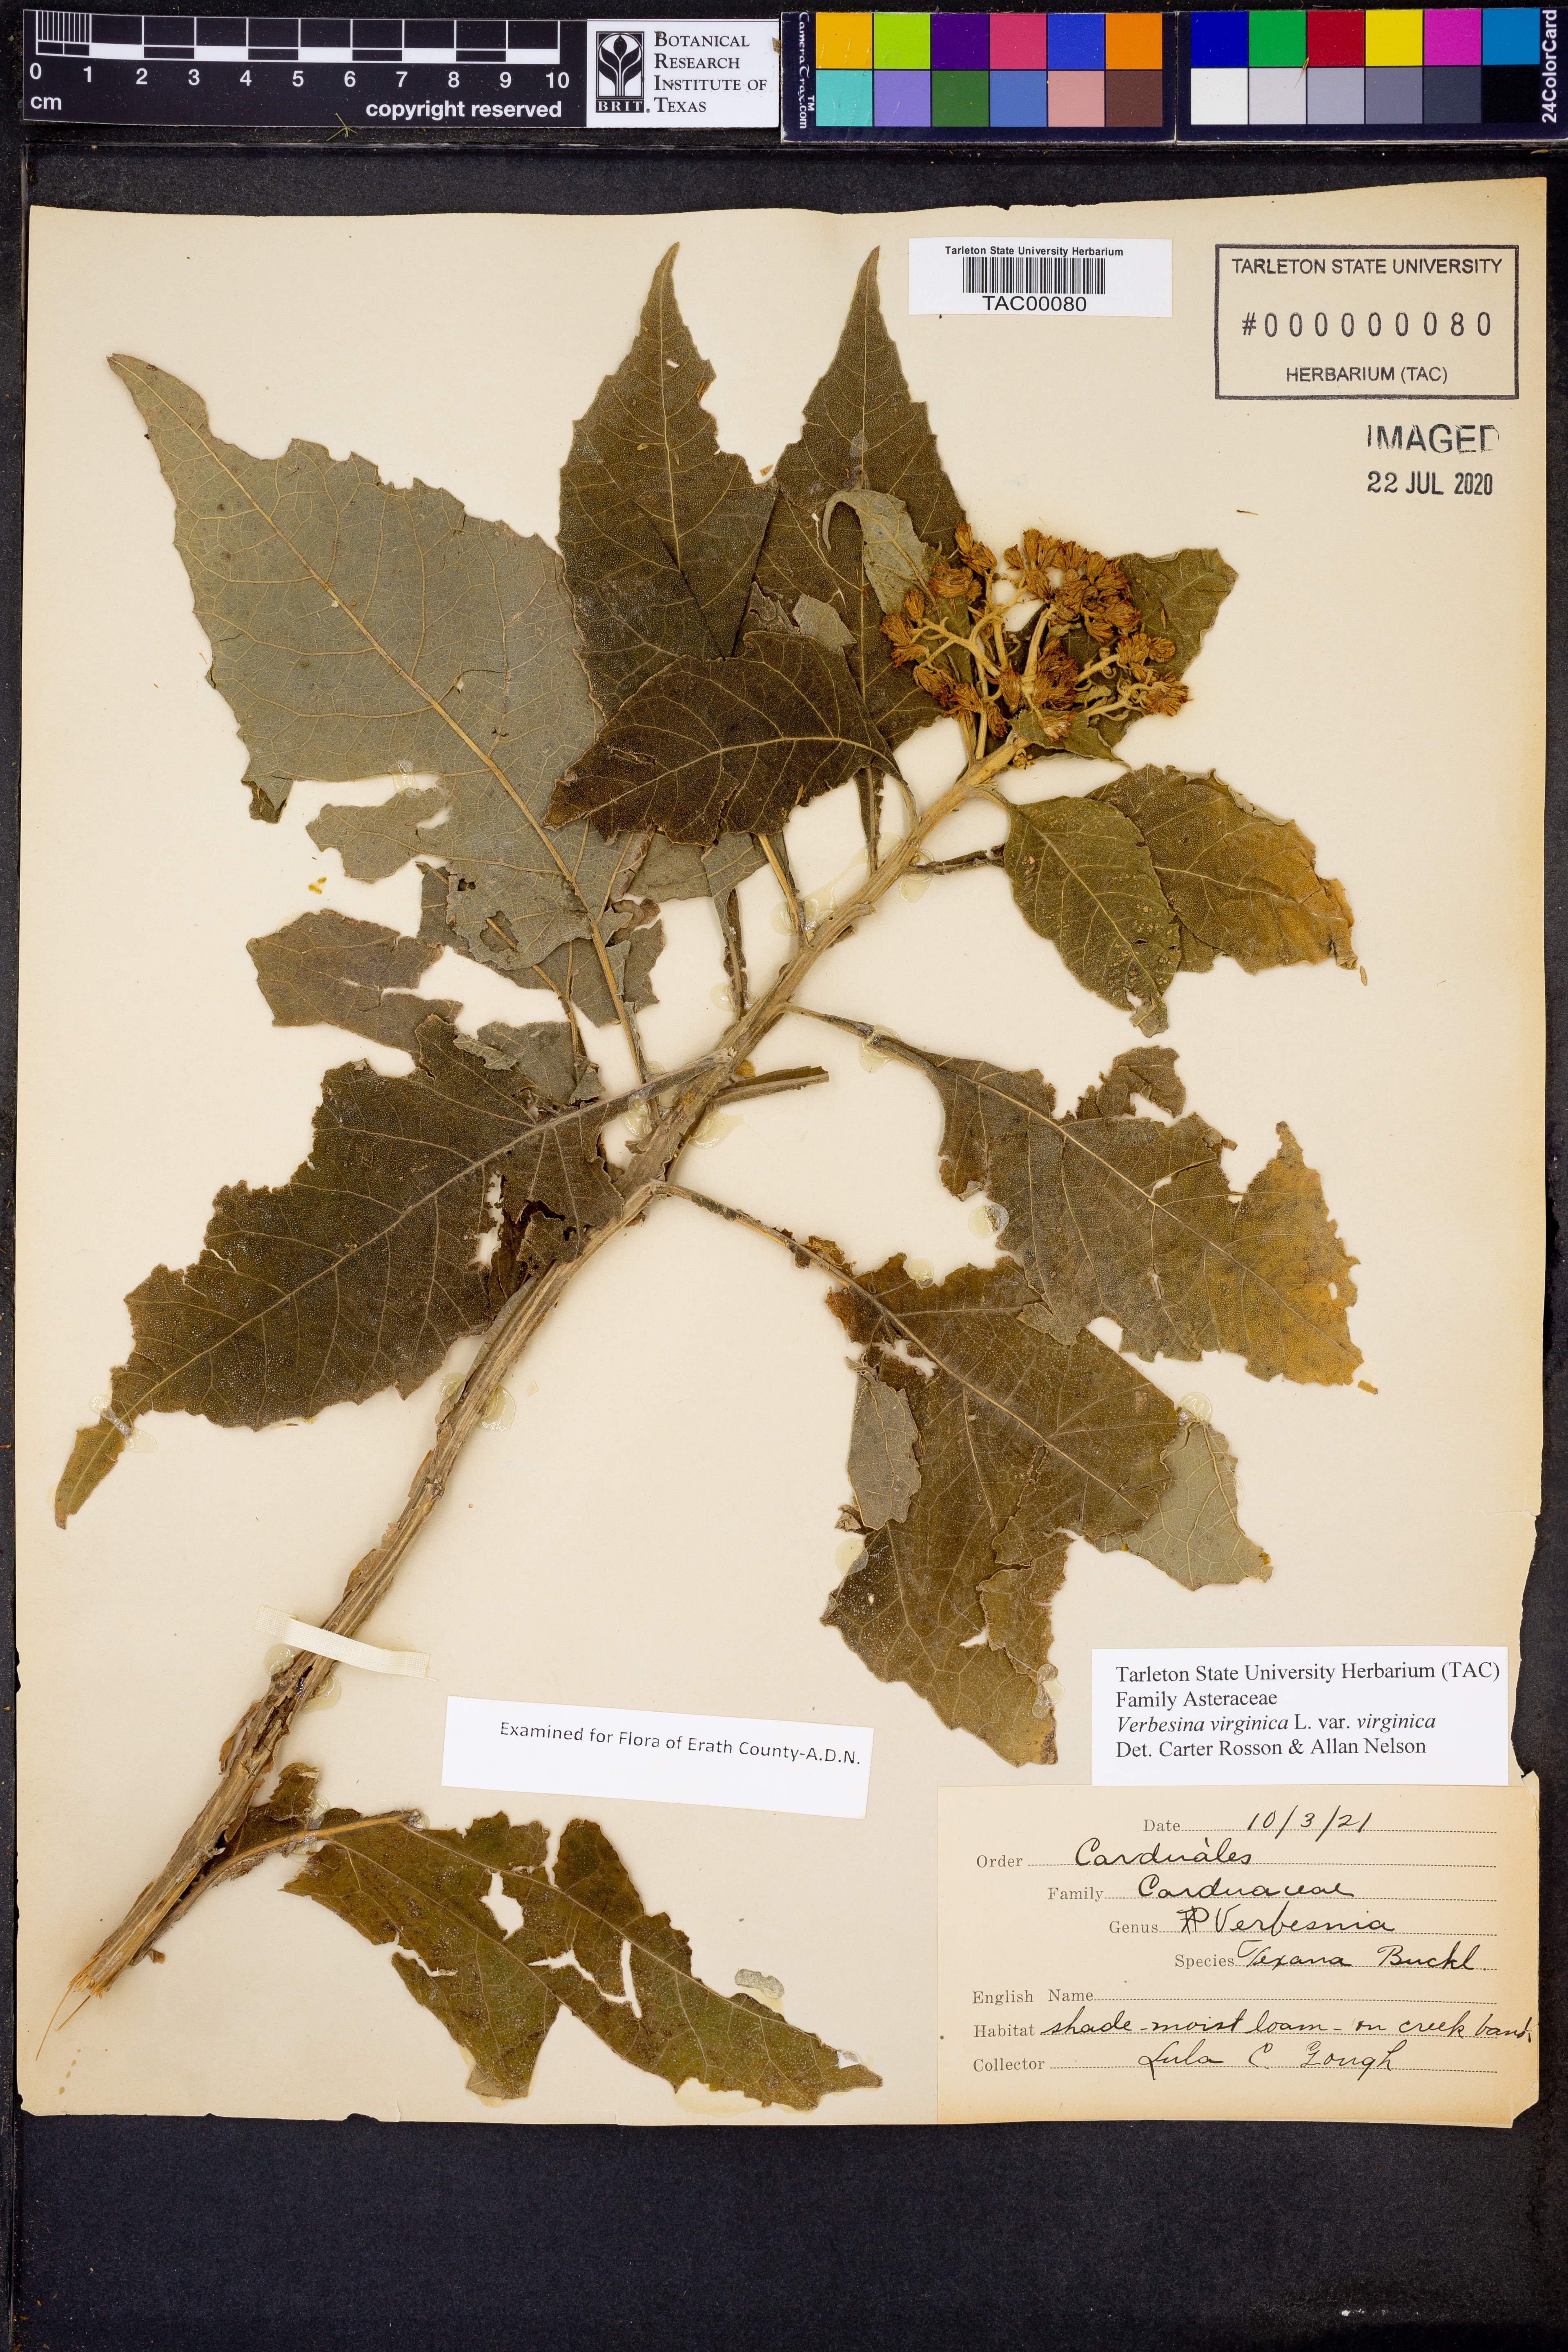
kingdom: Plantae
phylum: Tracheophyta
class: Magnoliopsida
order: Asterales
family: Asteraceae
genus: Verbesina
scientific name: Verbesina virginica
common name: Frostweed
